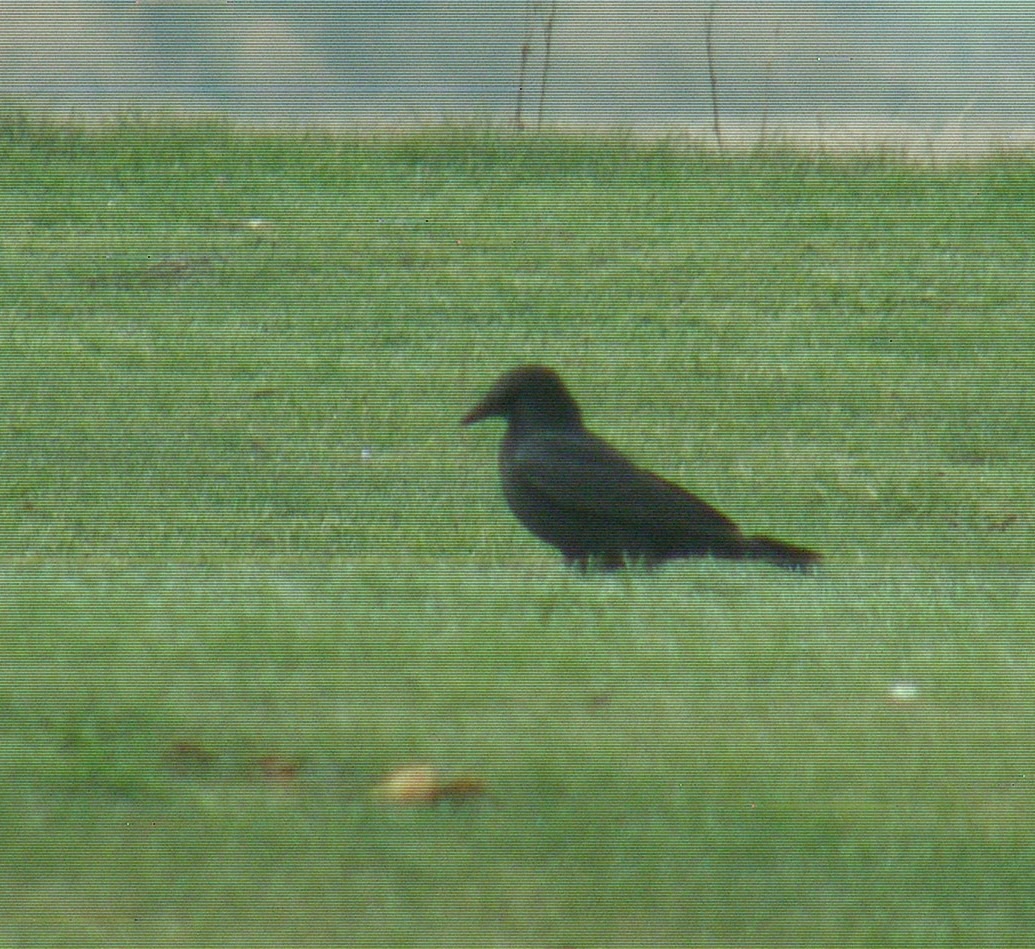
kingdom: Animalia
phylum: Chordata
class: Aves
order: Passeriformes
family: Corvidae
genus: Corvus
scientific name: Corvus corone
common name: Sortkrage
